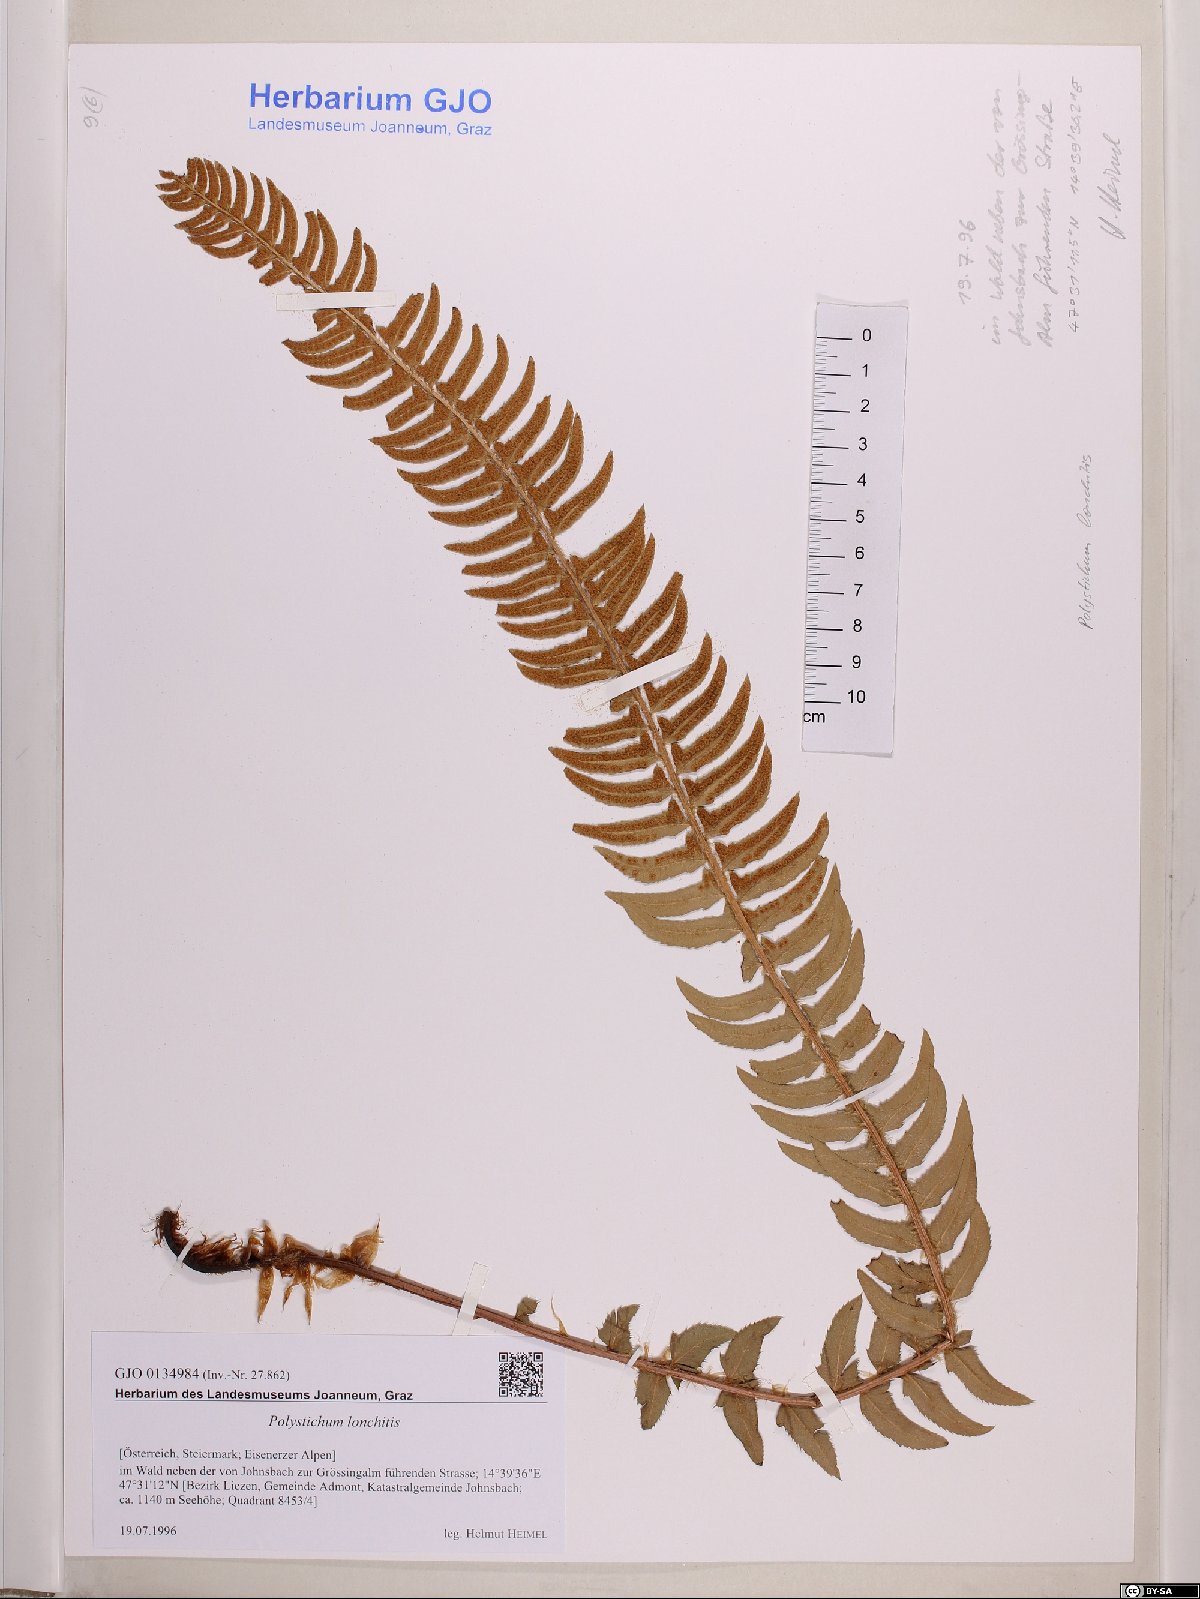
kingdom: Plantae
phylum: Tracheophyta
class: Polypodiopsida
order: Polypodiales
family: Dryopteridaceae
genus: Polystichum
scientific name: Polystichum lonchitis
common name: Holly fern
